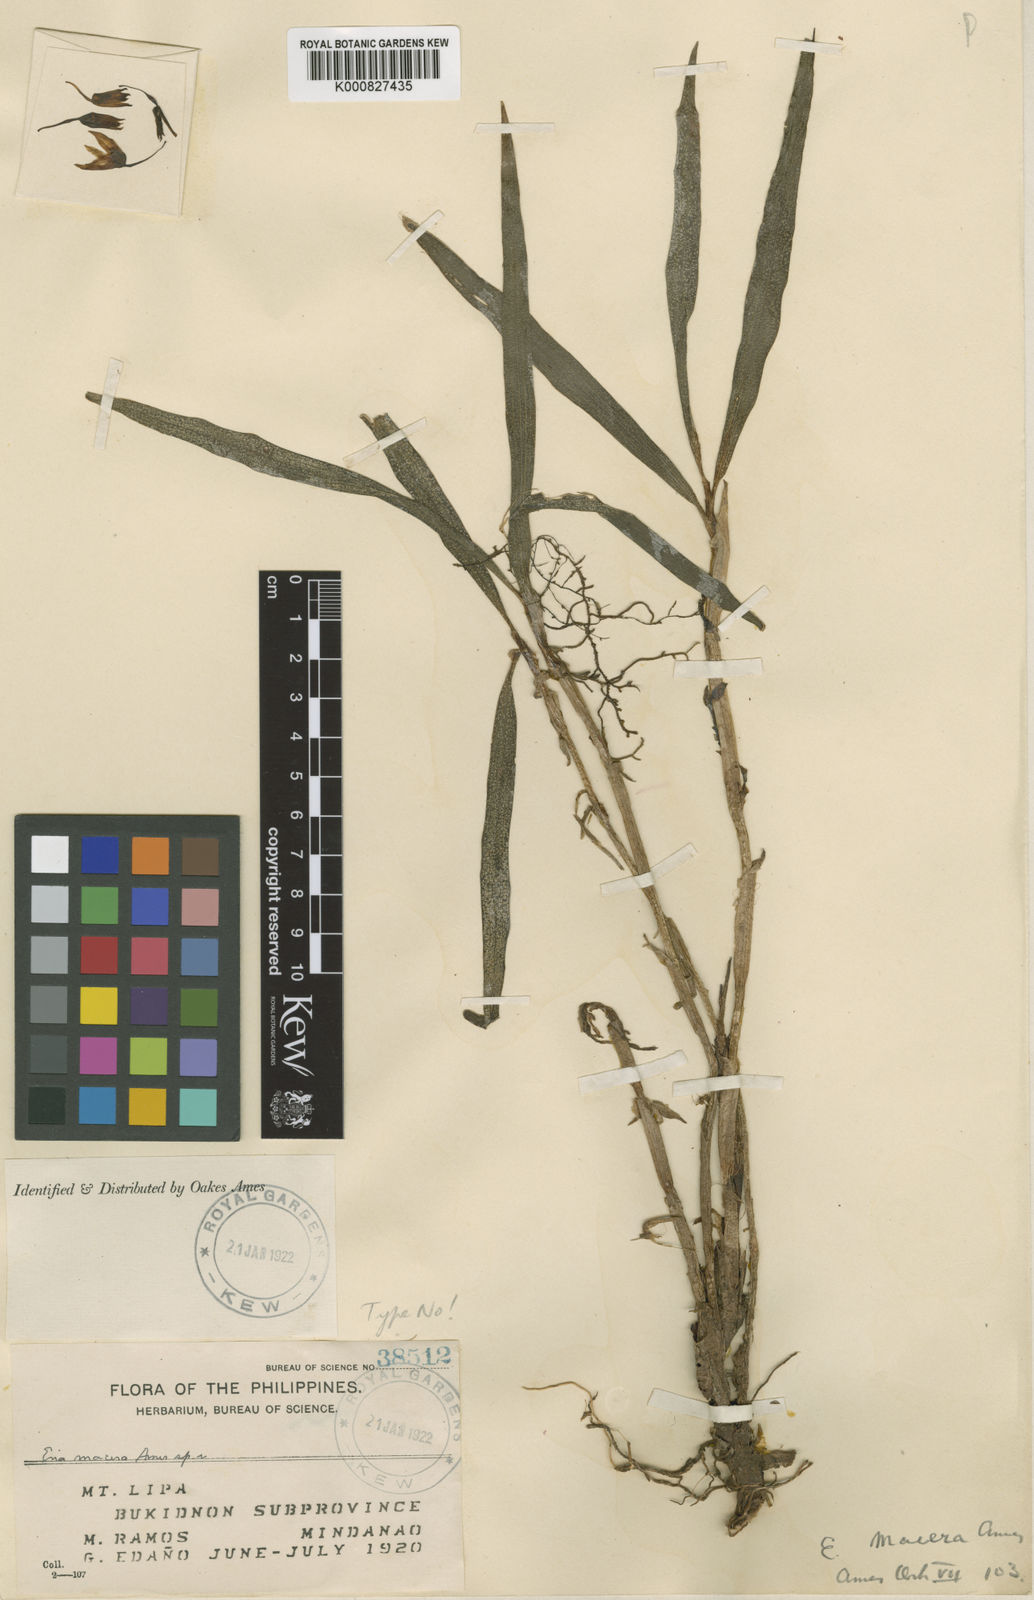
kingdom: Plantae
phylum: Tracheophyta
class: Liliopsida
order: Asparagales
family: Orchidaceae
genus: Pinalia
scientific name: Pinalia macera
